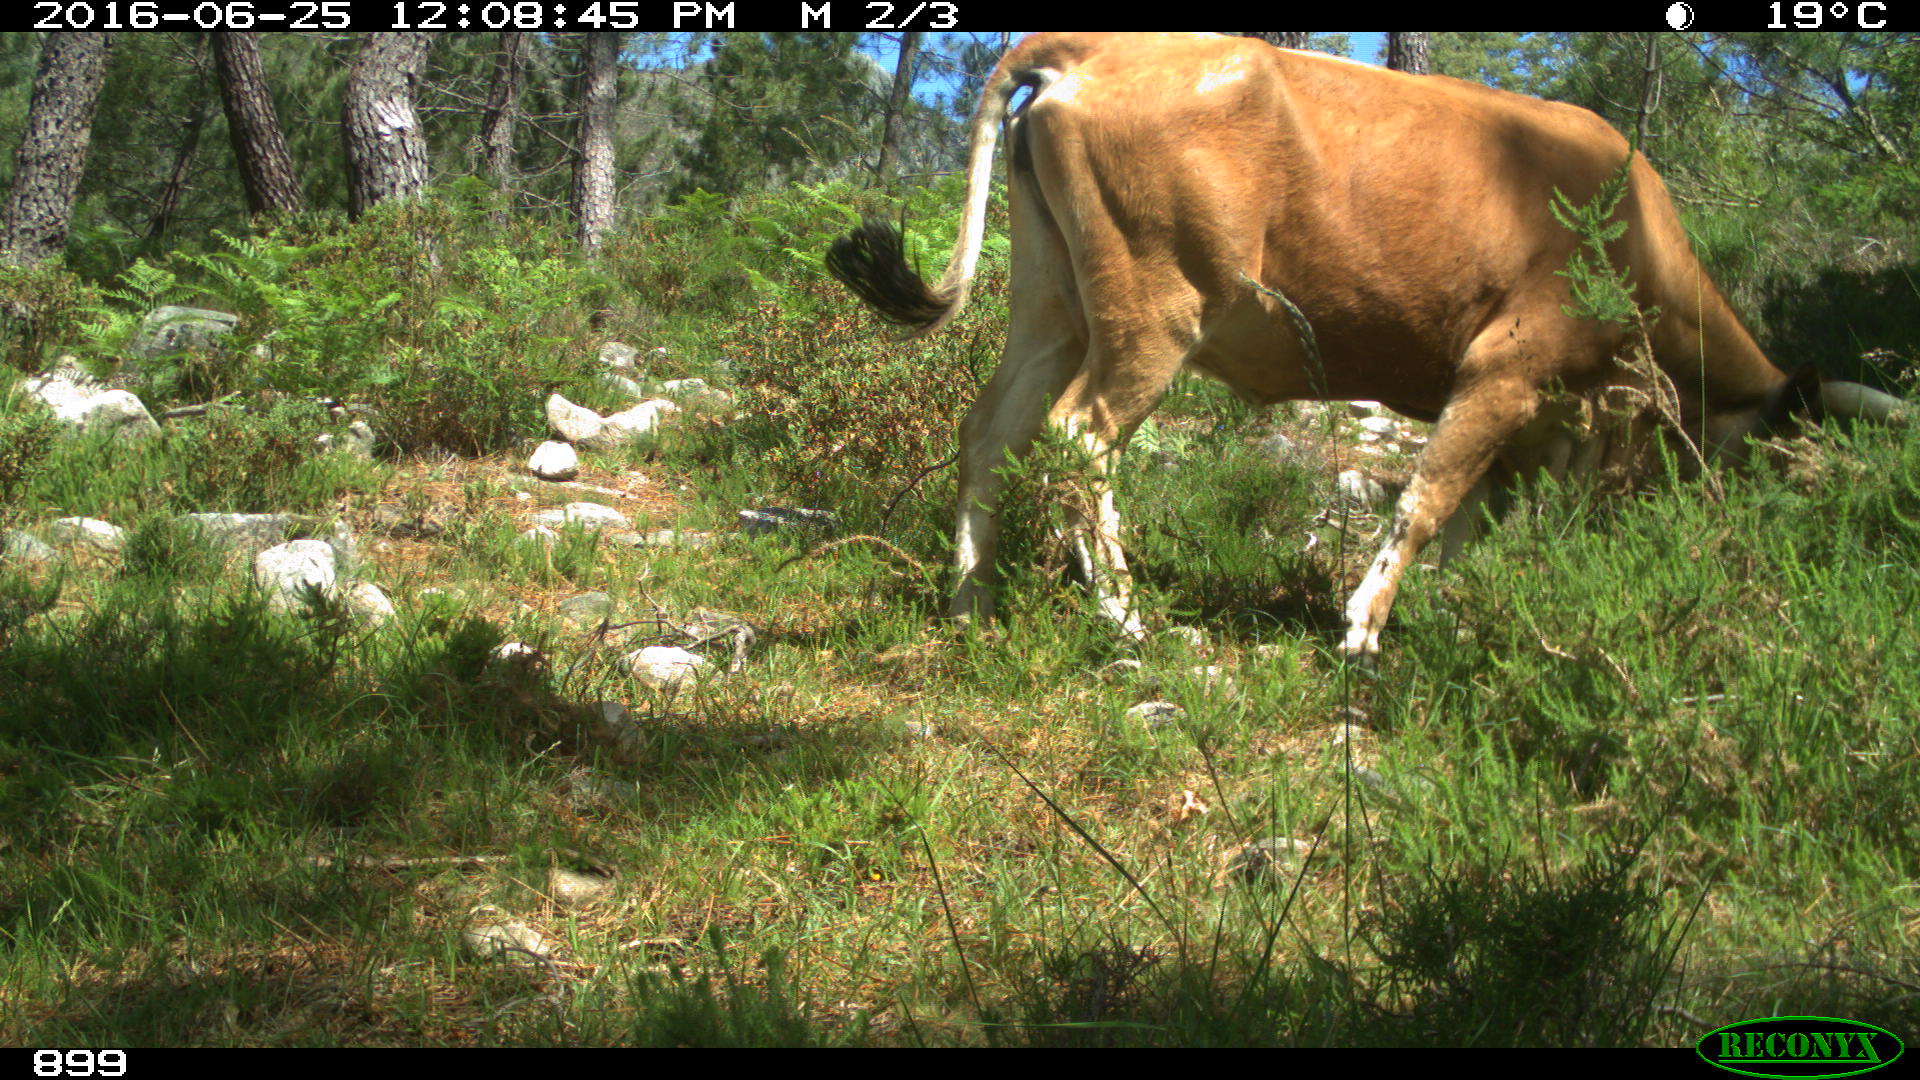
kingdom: Animalia
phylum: Chordata
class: Mammalia
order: Artiodactyla
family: Bovidae
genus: Bos
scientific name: Bos taurus
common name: Domesticated cattle
